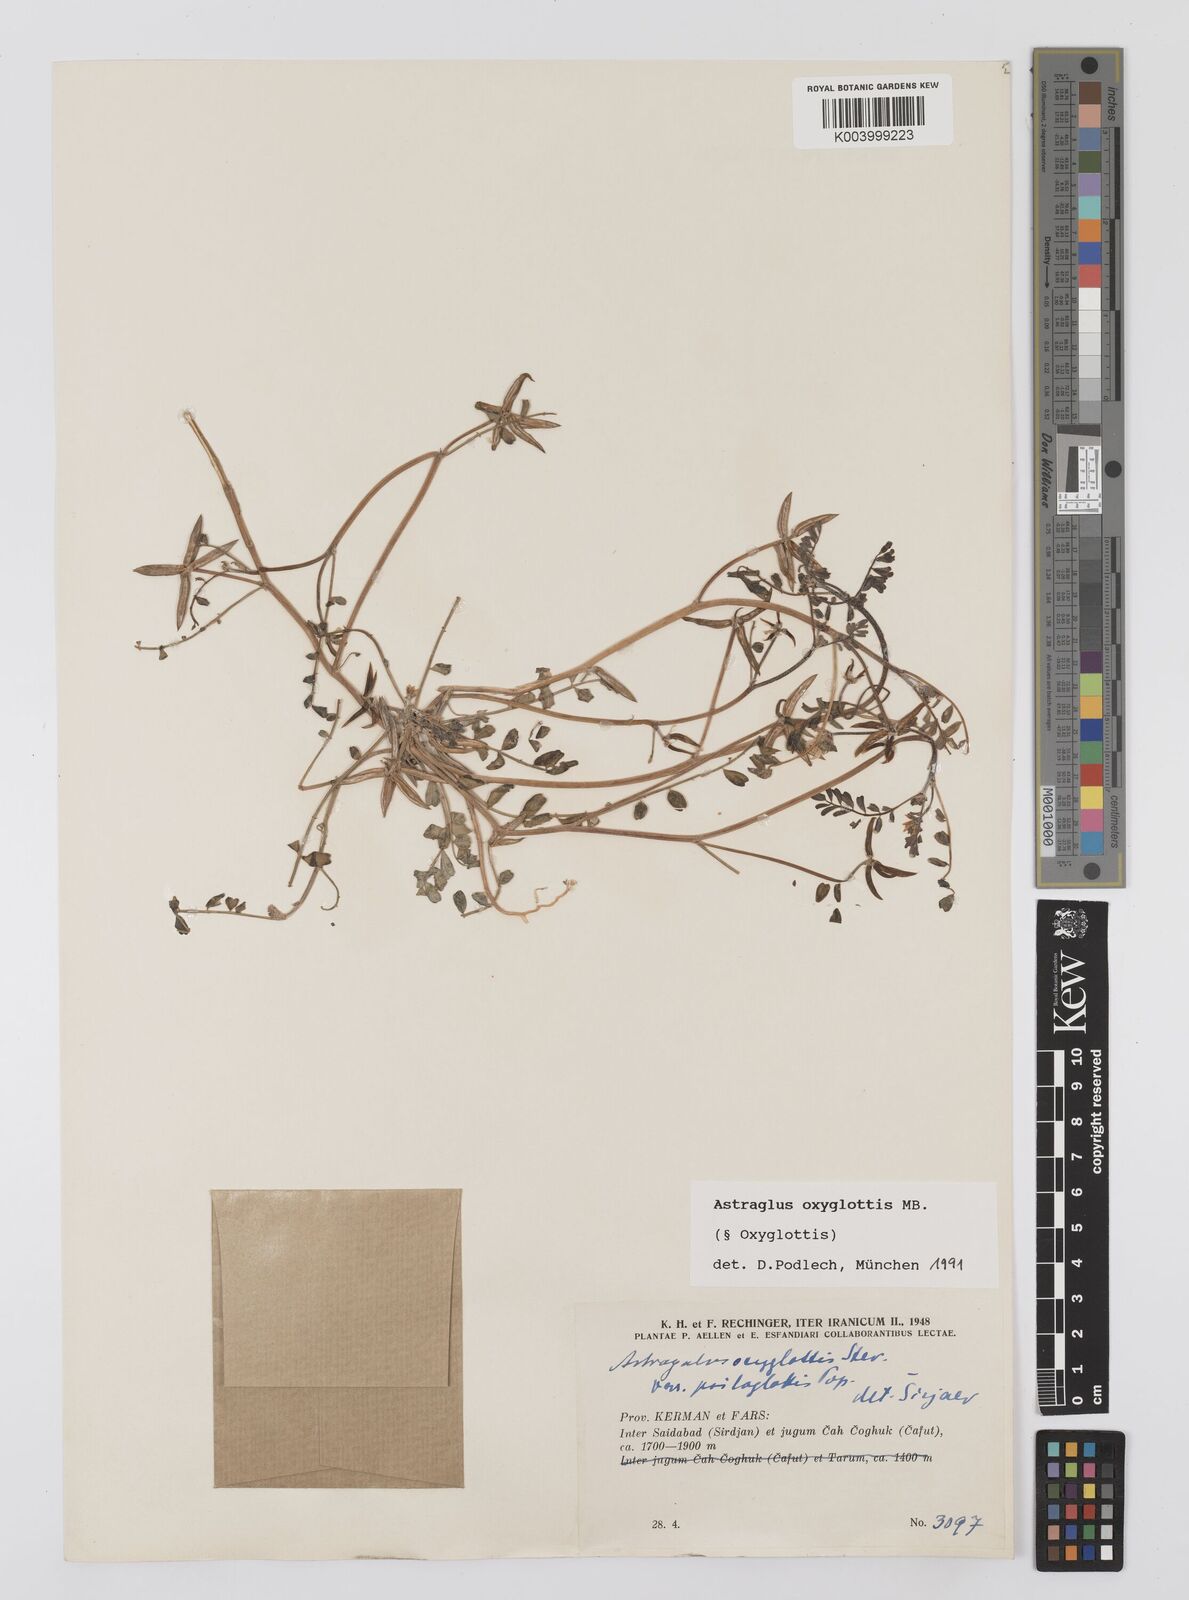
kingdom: Plantae
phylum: Tracheophyta
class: Magnoliopsida
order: Fabales
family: Fabaceae
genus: Astragalus
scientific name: Astragalus oxyglottis
